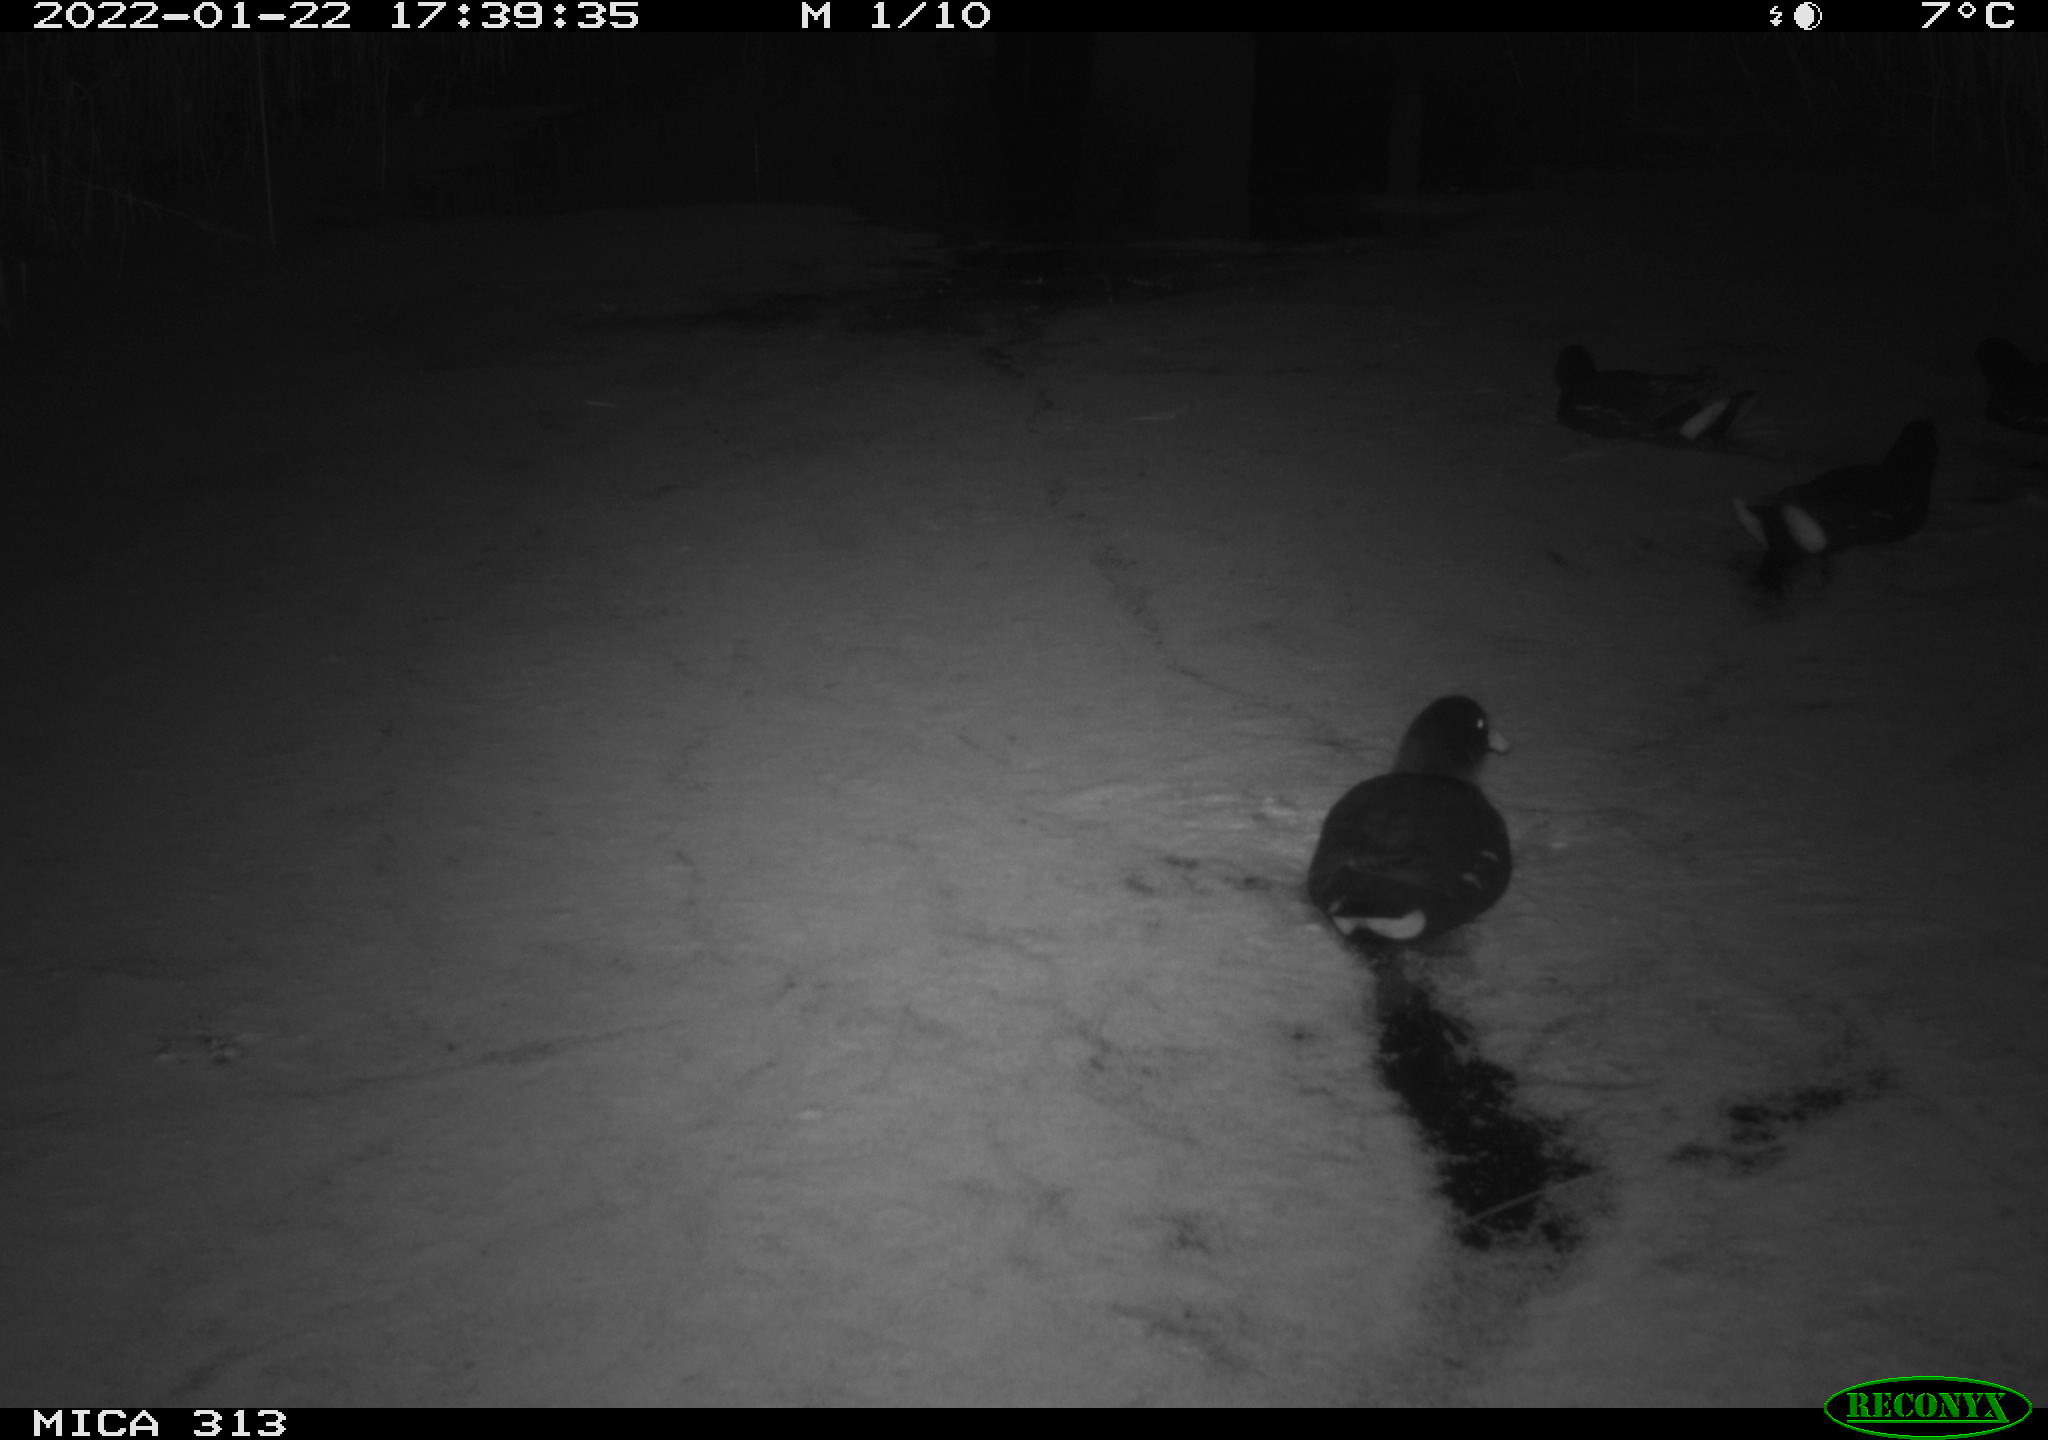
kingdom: Animalia
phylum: Chordata
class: Aves
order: Gruiformes
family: Rallidae
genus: Gallinula
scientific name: Gallinula chloropus
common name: Common moorhen
